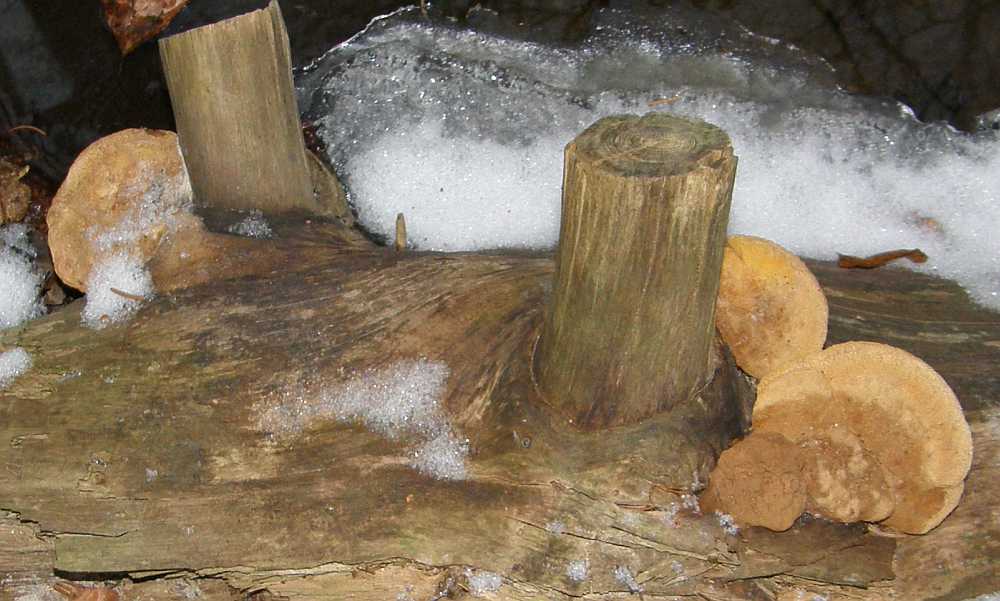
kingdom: Fungi
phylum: Basidiomycota
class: Agaricomycetes
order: Gloeophyllales
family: Gloeophyllaceae
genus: Gloeophyllum
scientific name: Gloeophyllum odoratum
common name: duftende korkhat
